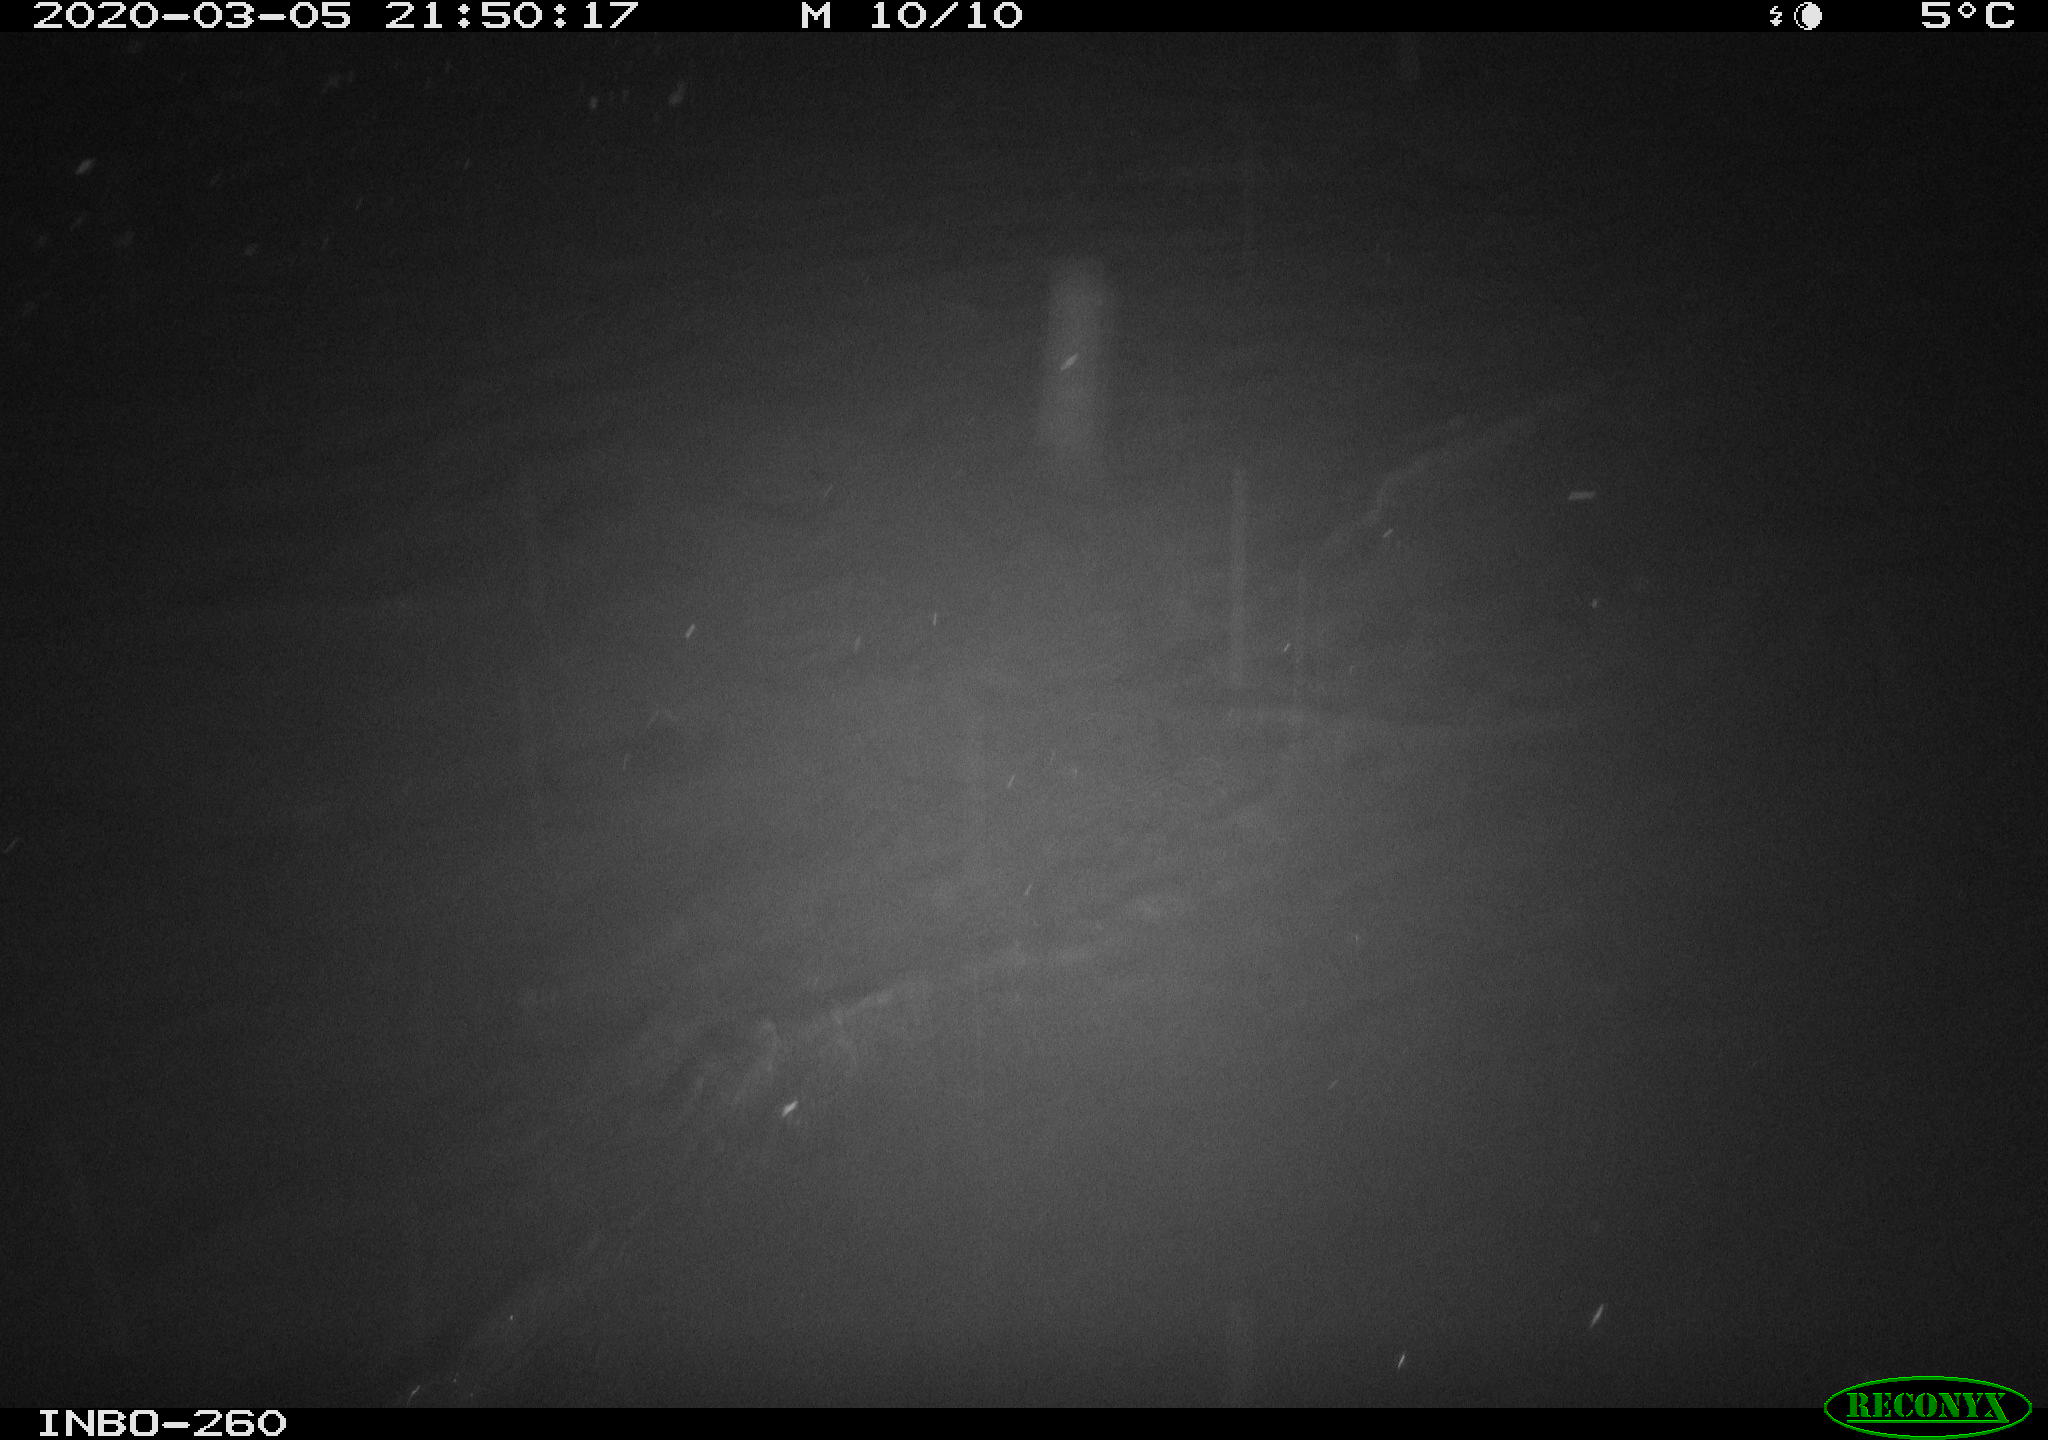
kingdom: Animalia
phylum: Chordata
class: Aves
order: Anseriformes
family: Anatidae
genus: Anas
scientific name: Anas platyrhynchos
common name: Mallard
